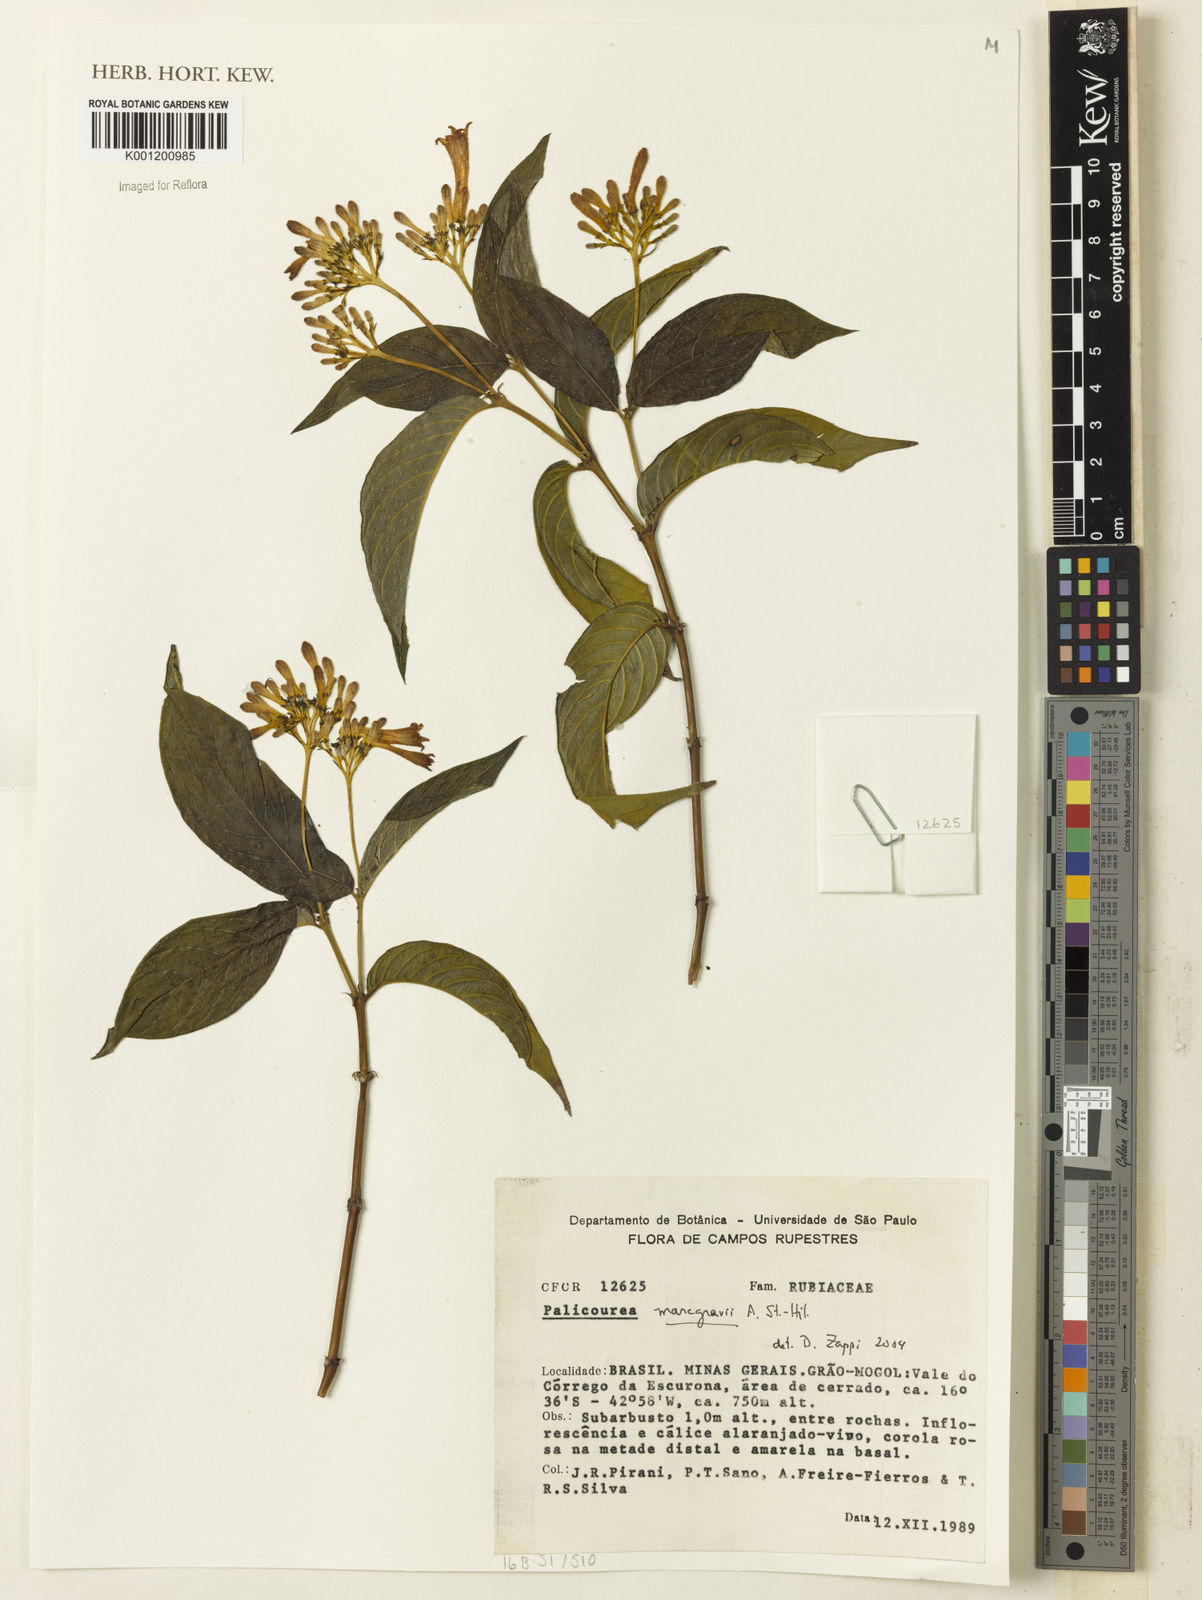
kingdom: Plantae
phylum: Tracheophyta
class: Magnoliopsida
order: Gentianales
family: Rubiaceae
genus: Palicourea
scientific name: Palicourea marcgravii
